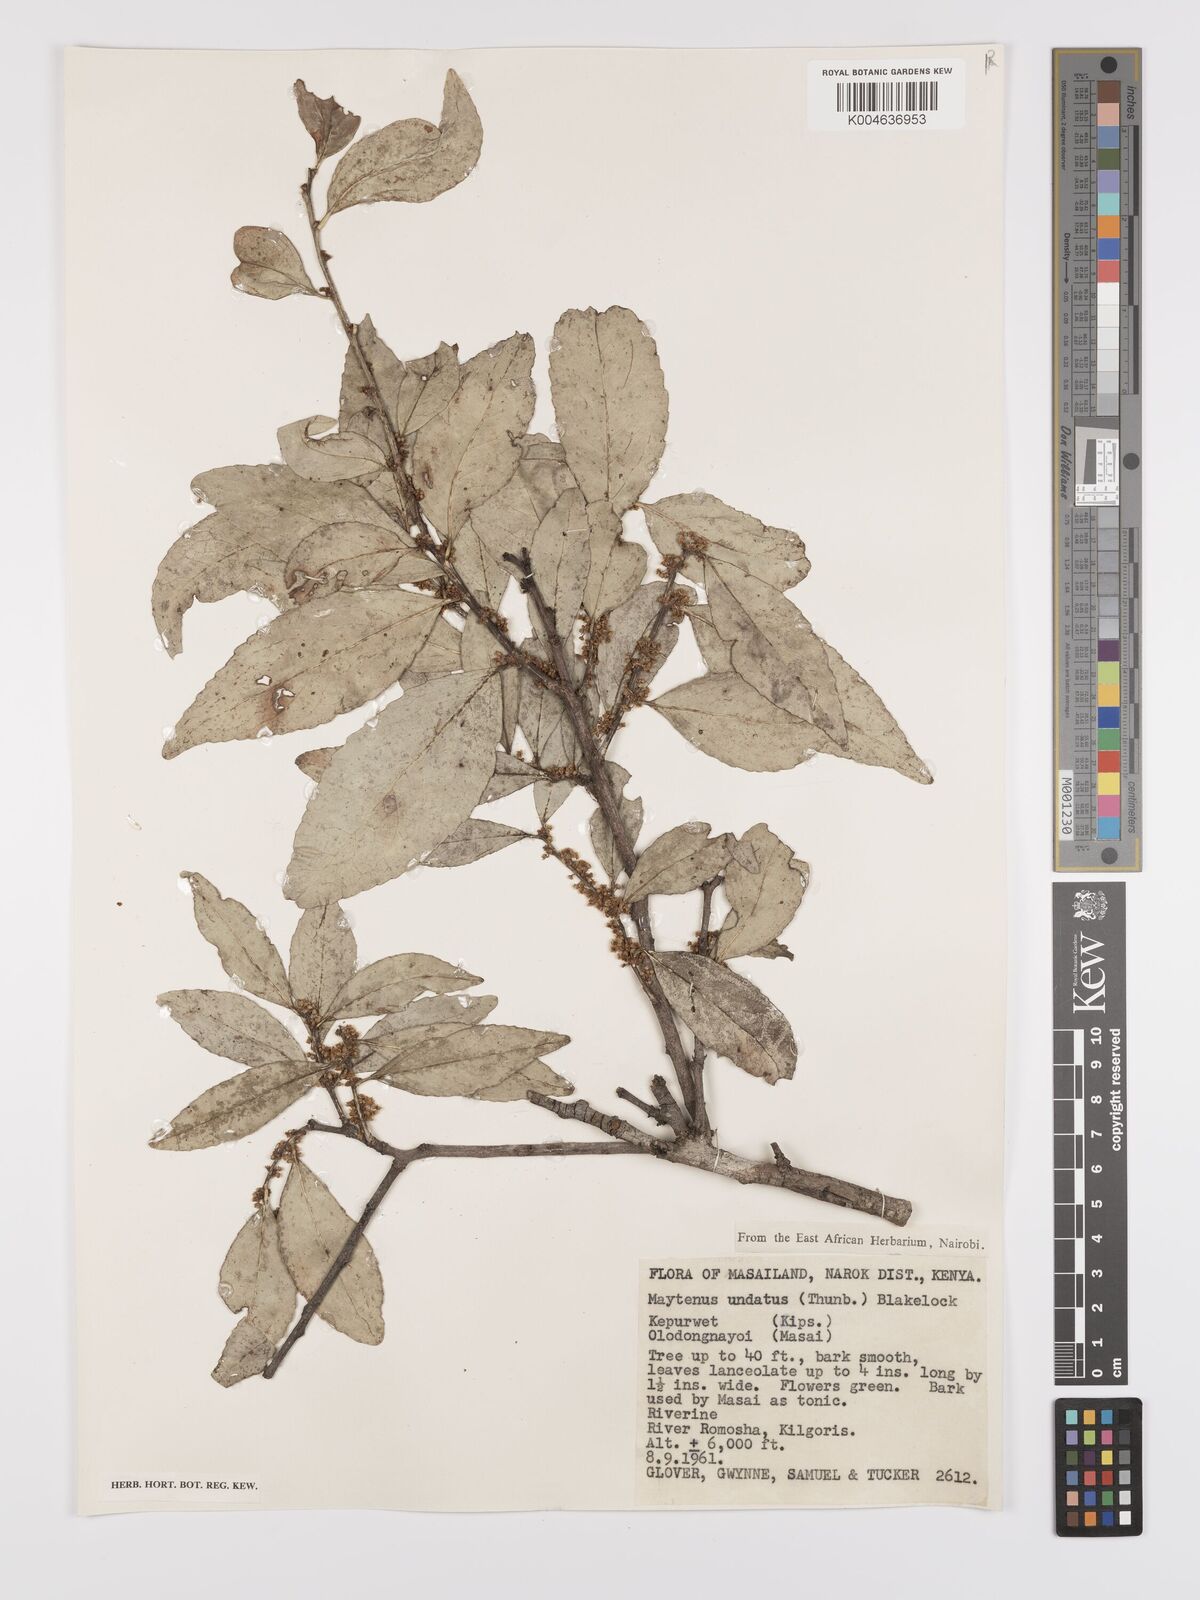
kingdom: Plantae
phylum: Tracheophyta
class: Magnoliopsida
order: Celastrales
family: Celastraceae
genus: Gymnosporia
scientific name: Gymnosporia undata
